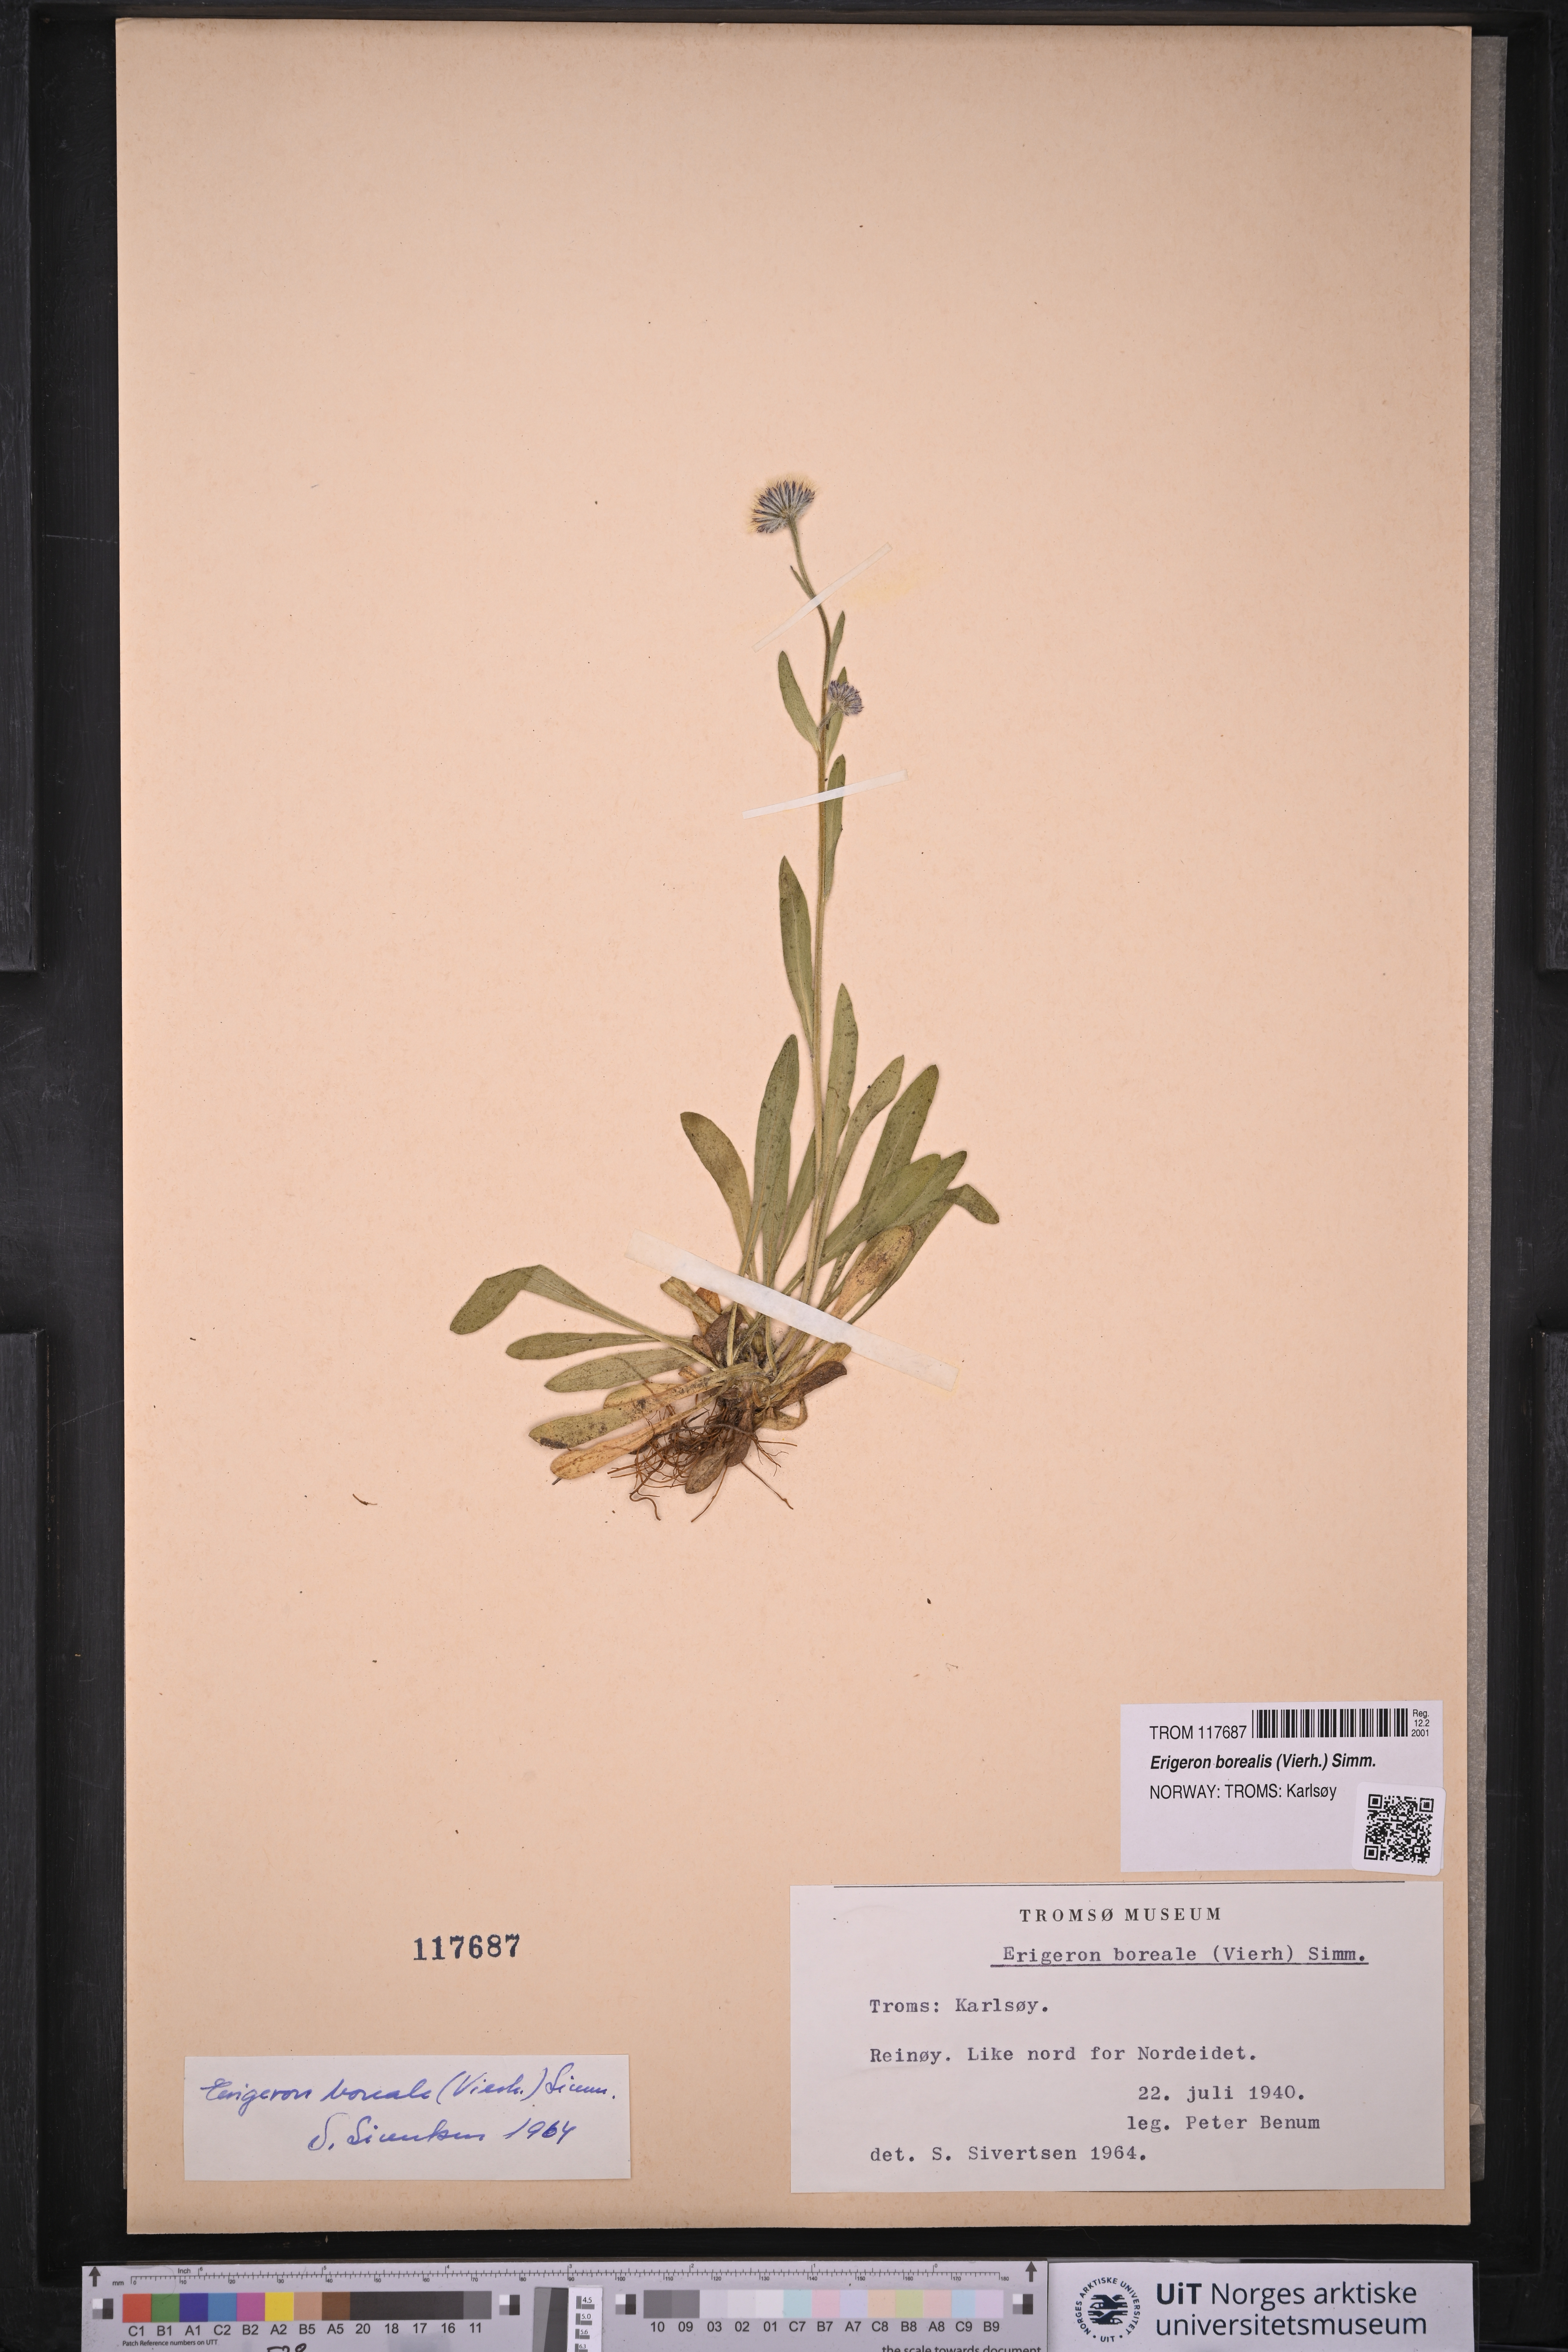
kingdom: Plantae
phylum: Tracheophyta
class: Magnoliopsida
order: Asterales
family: Asteraceae
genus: Erigeron
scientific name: Erigeron borealis
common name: Alpine fleabane
